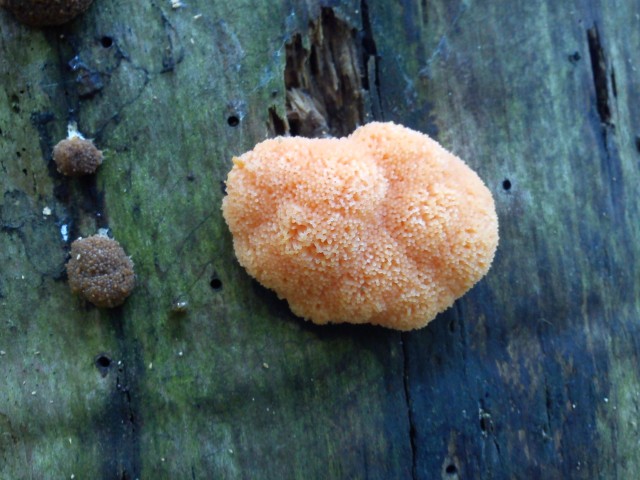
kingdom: Protozoa
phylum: Mycetozoa
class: Myxomycetes
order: Cribrariales
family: Tubiferaceae
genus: Tubifera
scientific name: Tubifera ferruginosa
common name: kanel-støvrør
